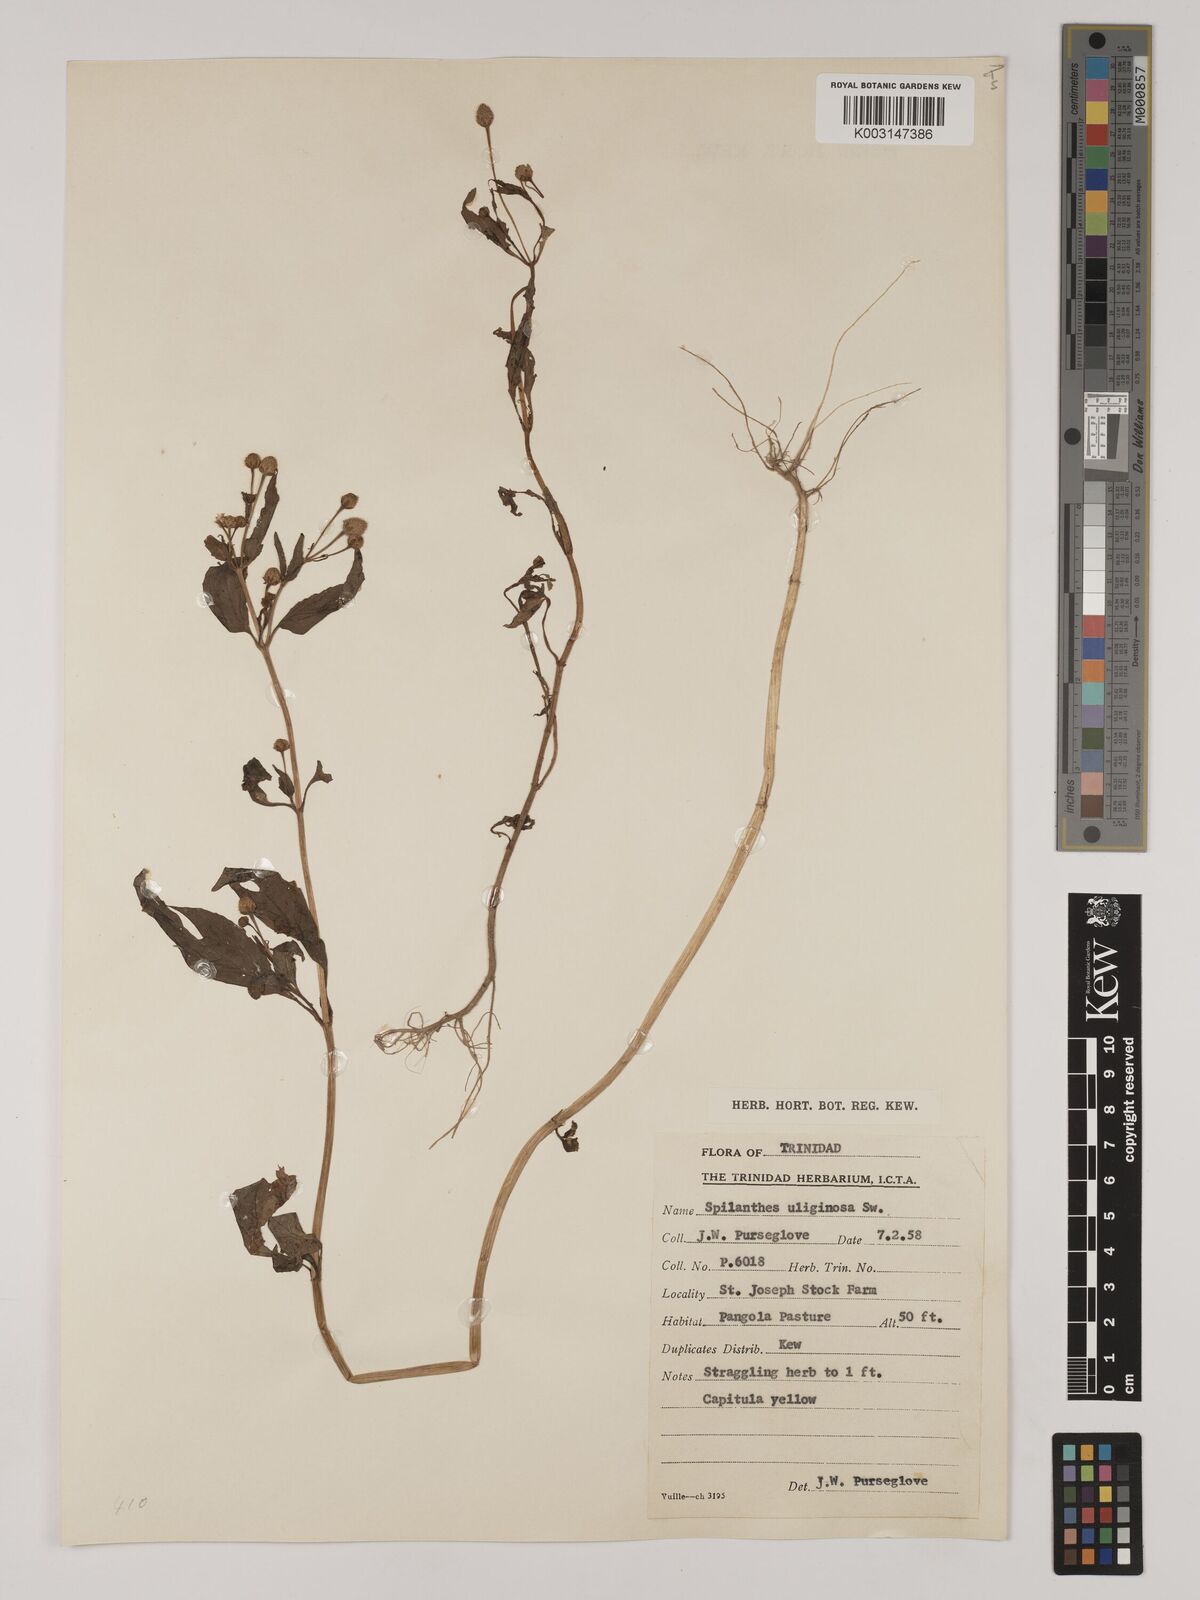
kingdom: Plantae
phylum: Tracheophyta
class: Magnoliopsida
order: Asterales
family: Asteraceae
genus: Acmella
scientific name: Acmella uliginosa
